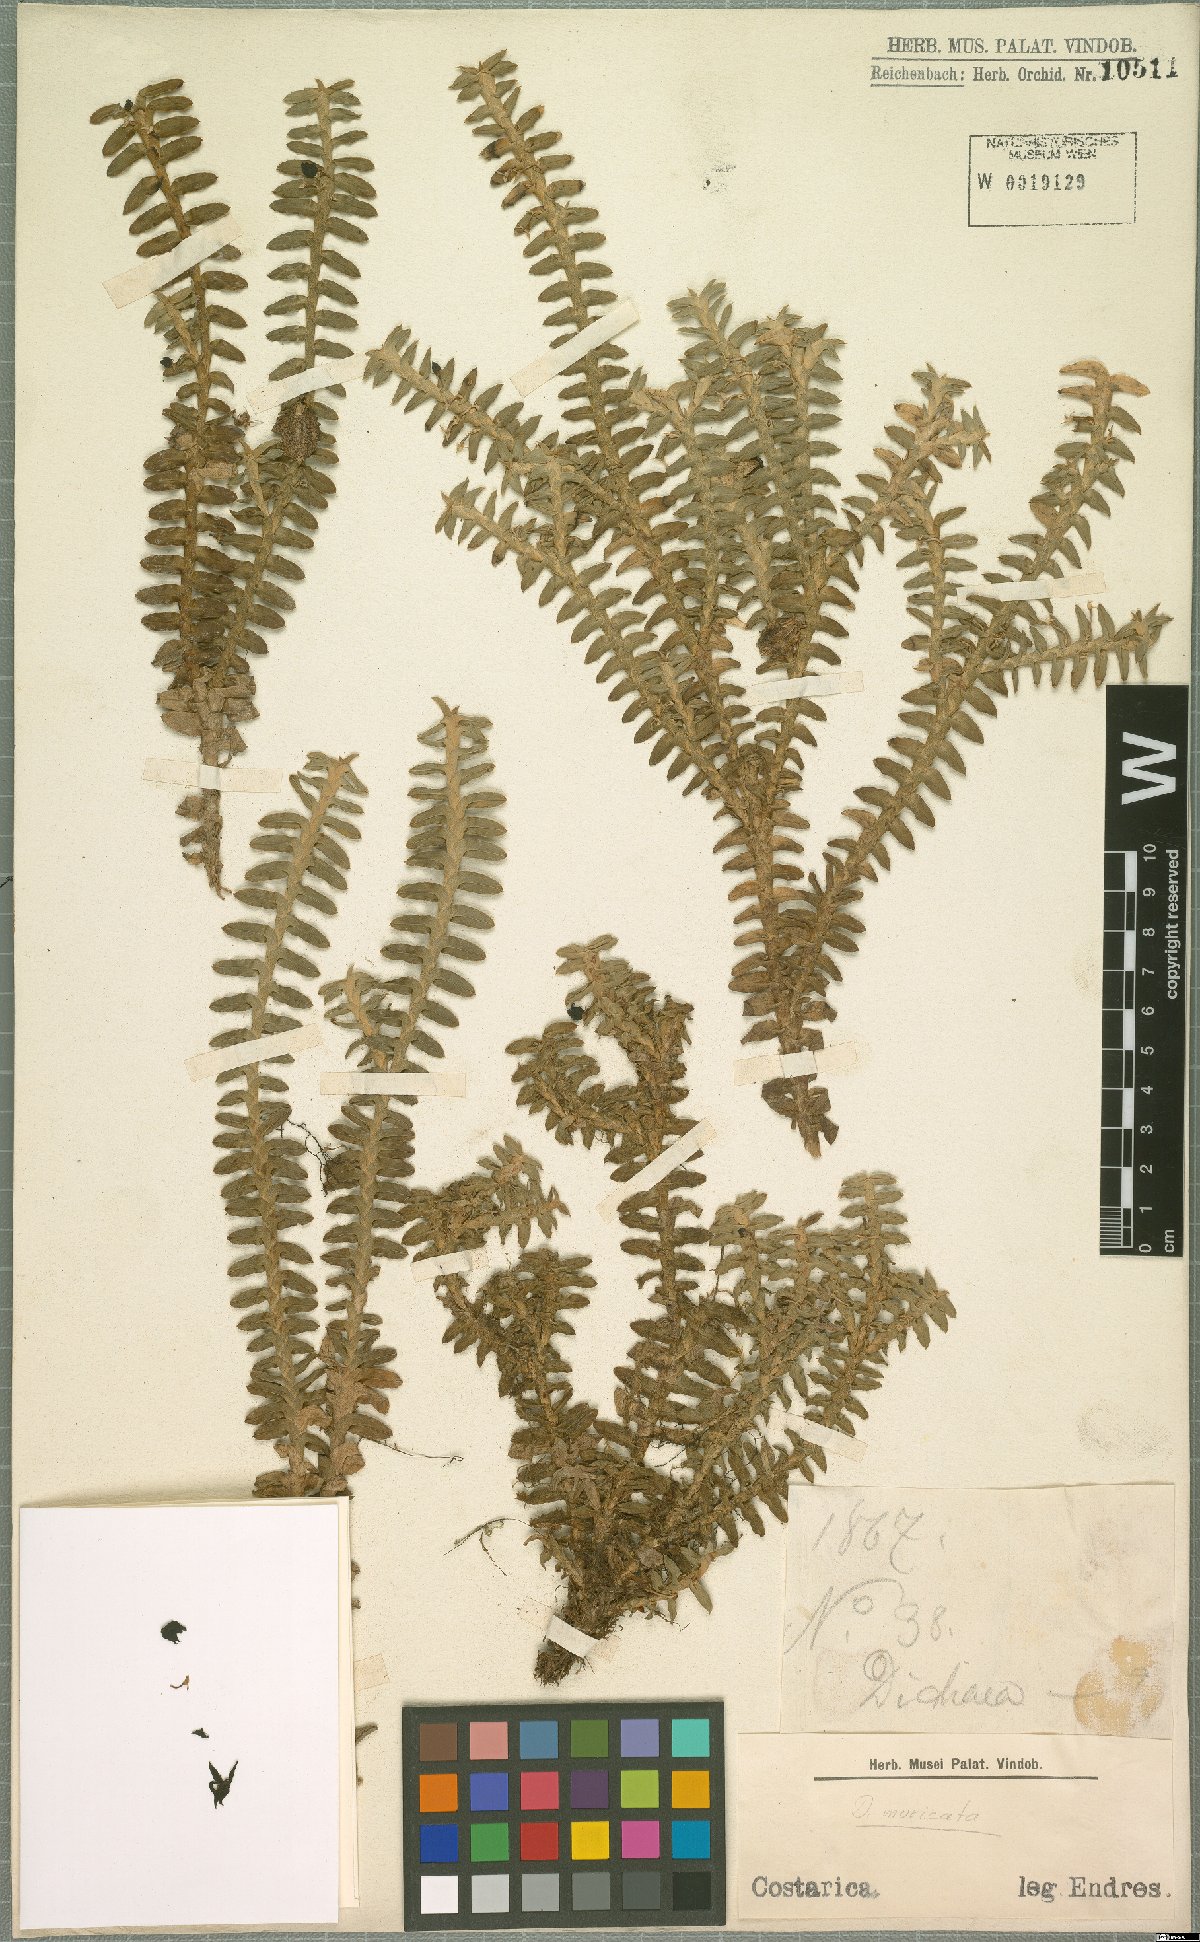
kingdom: Plantae
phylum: Tracheophyta
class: Liliopsida
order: Asparagales
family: Orchidaceae
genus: Dichaea
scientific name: Dichaea morrisii
